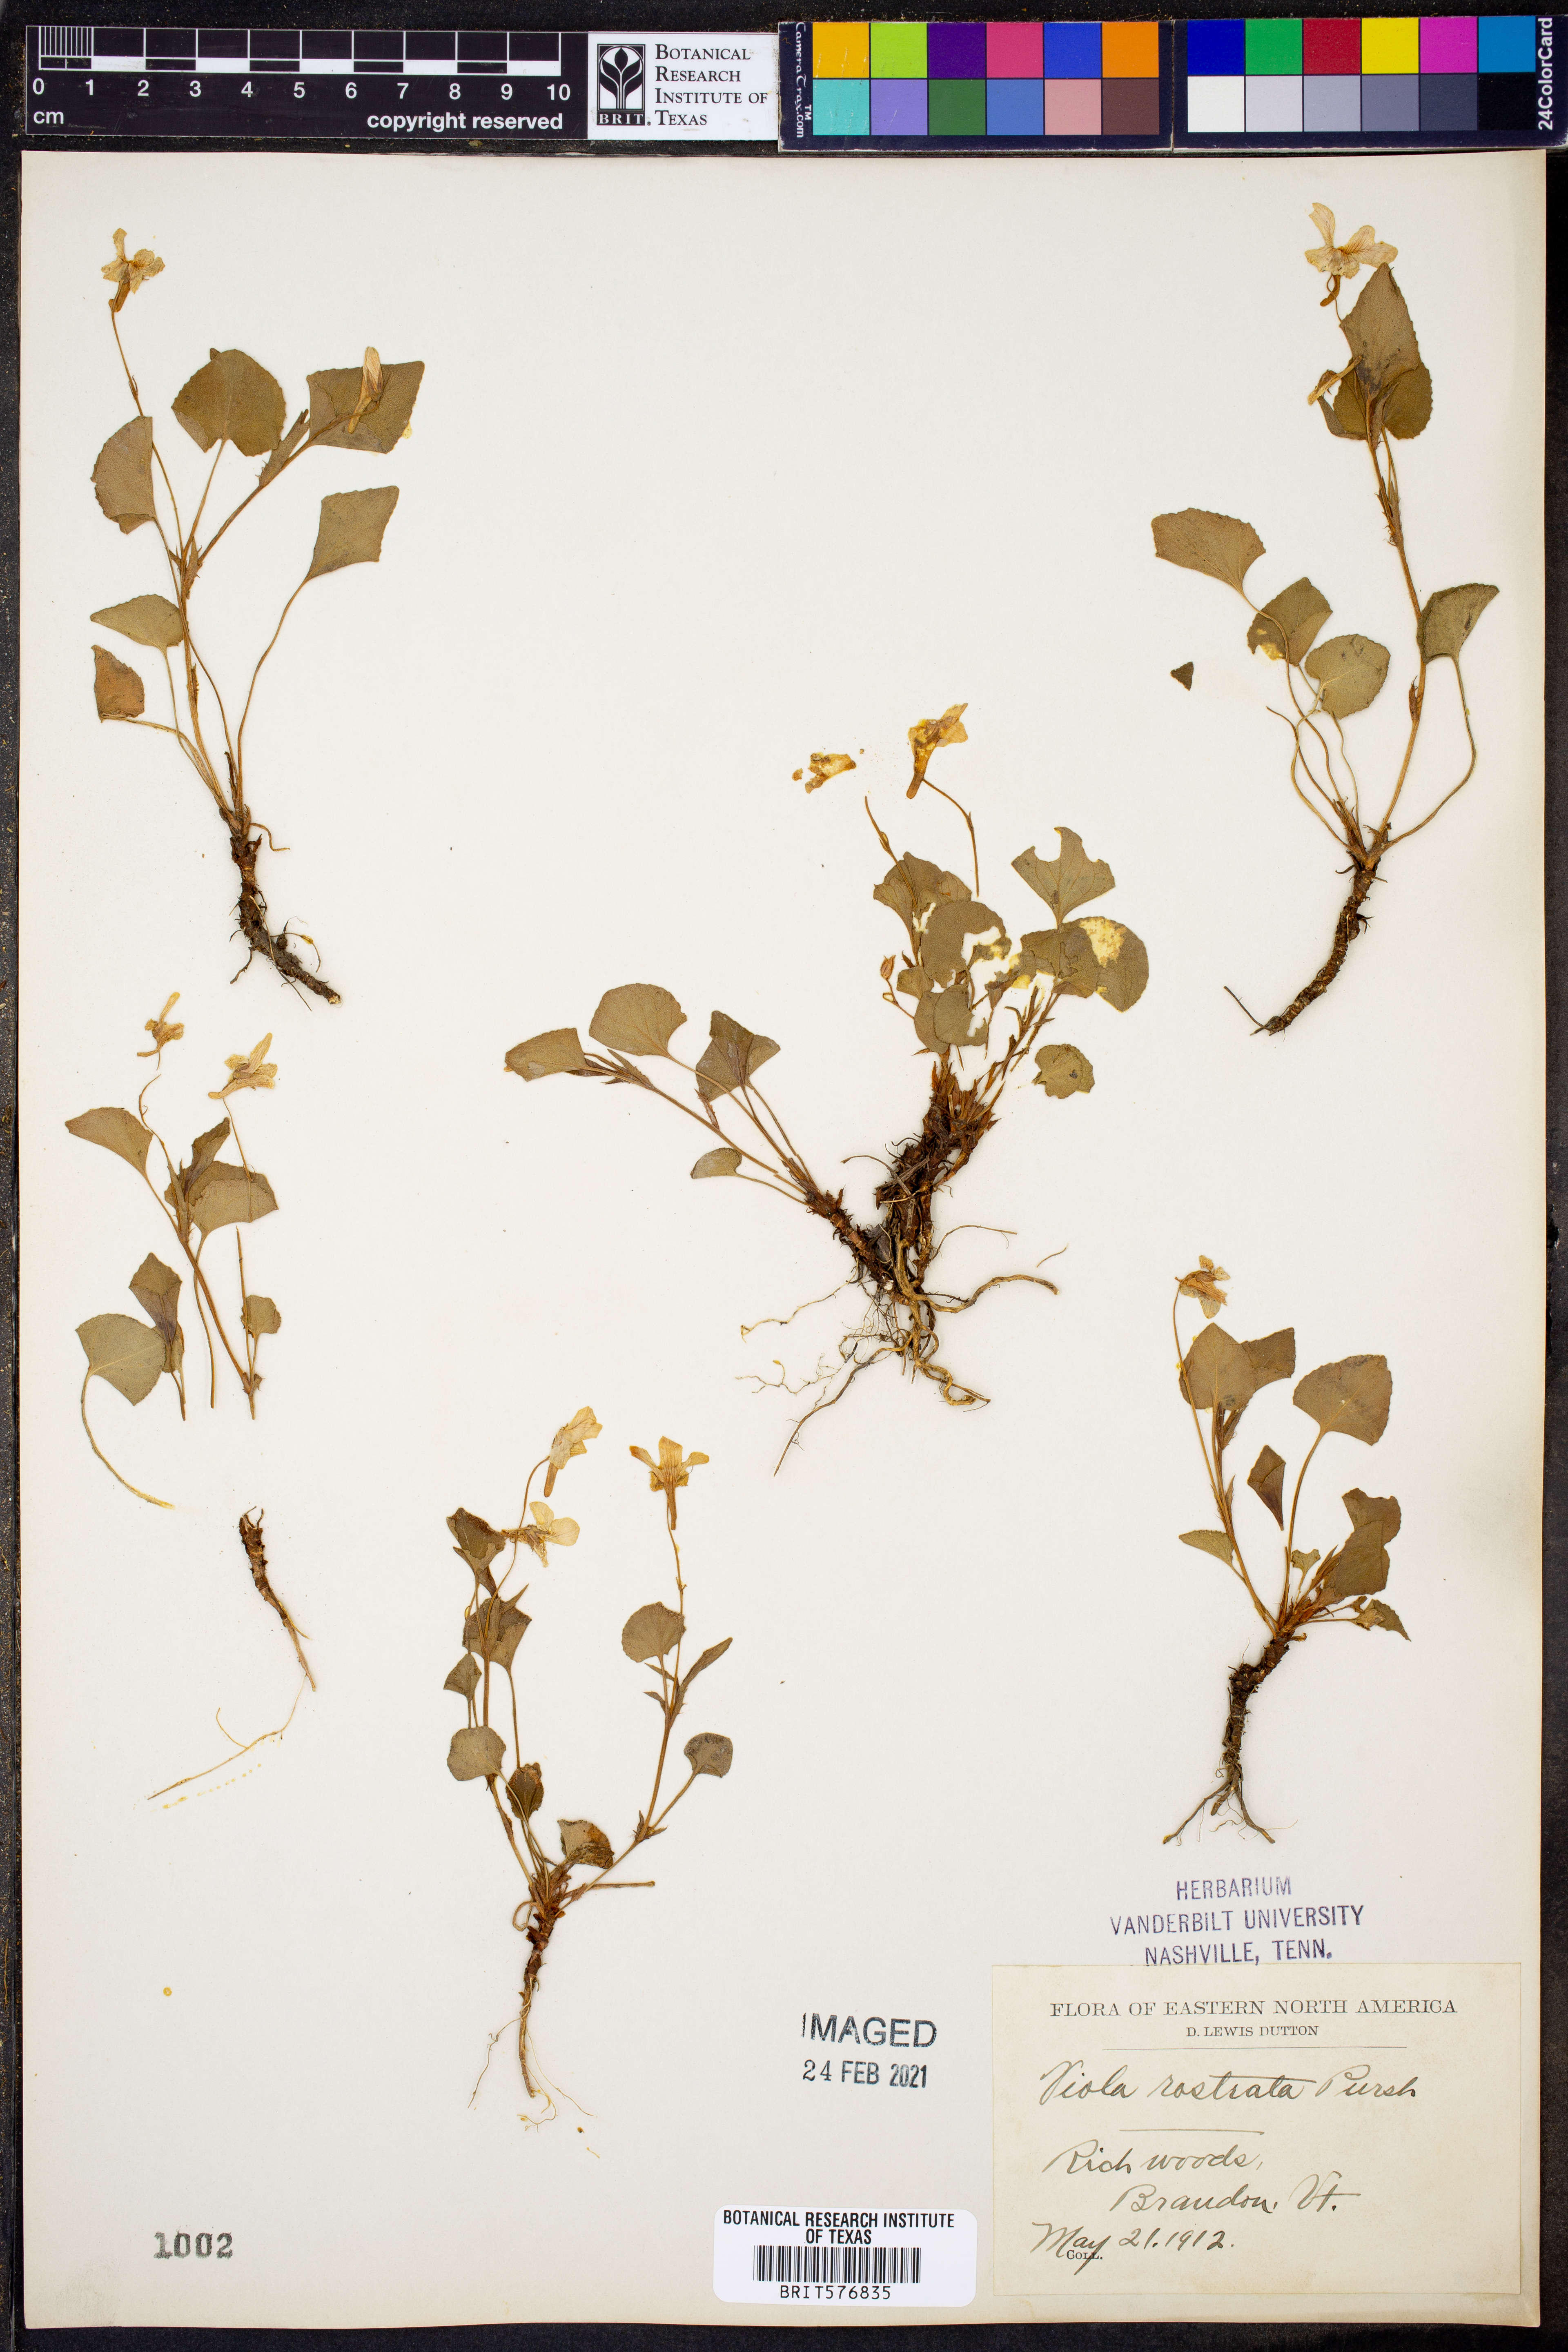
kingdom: Plantae
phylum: Tracheophyta
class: Magnoliopsida
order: Malpighiales
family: Violaceae
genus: Viola
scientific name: Viola rostrata
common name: Long-spur violet
